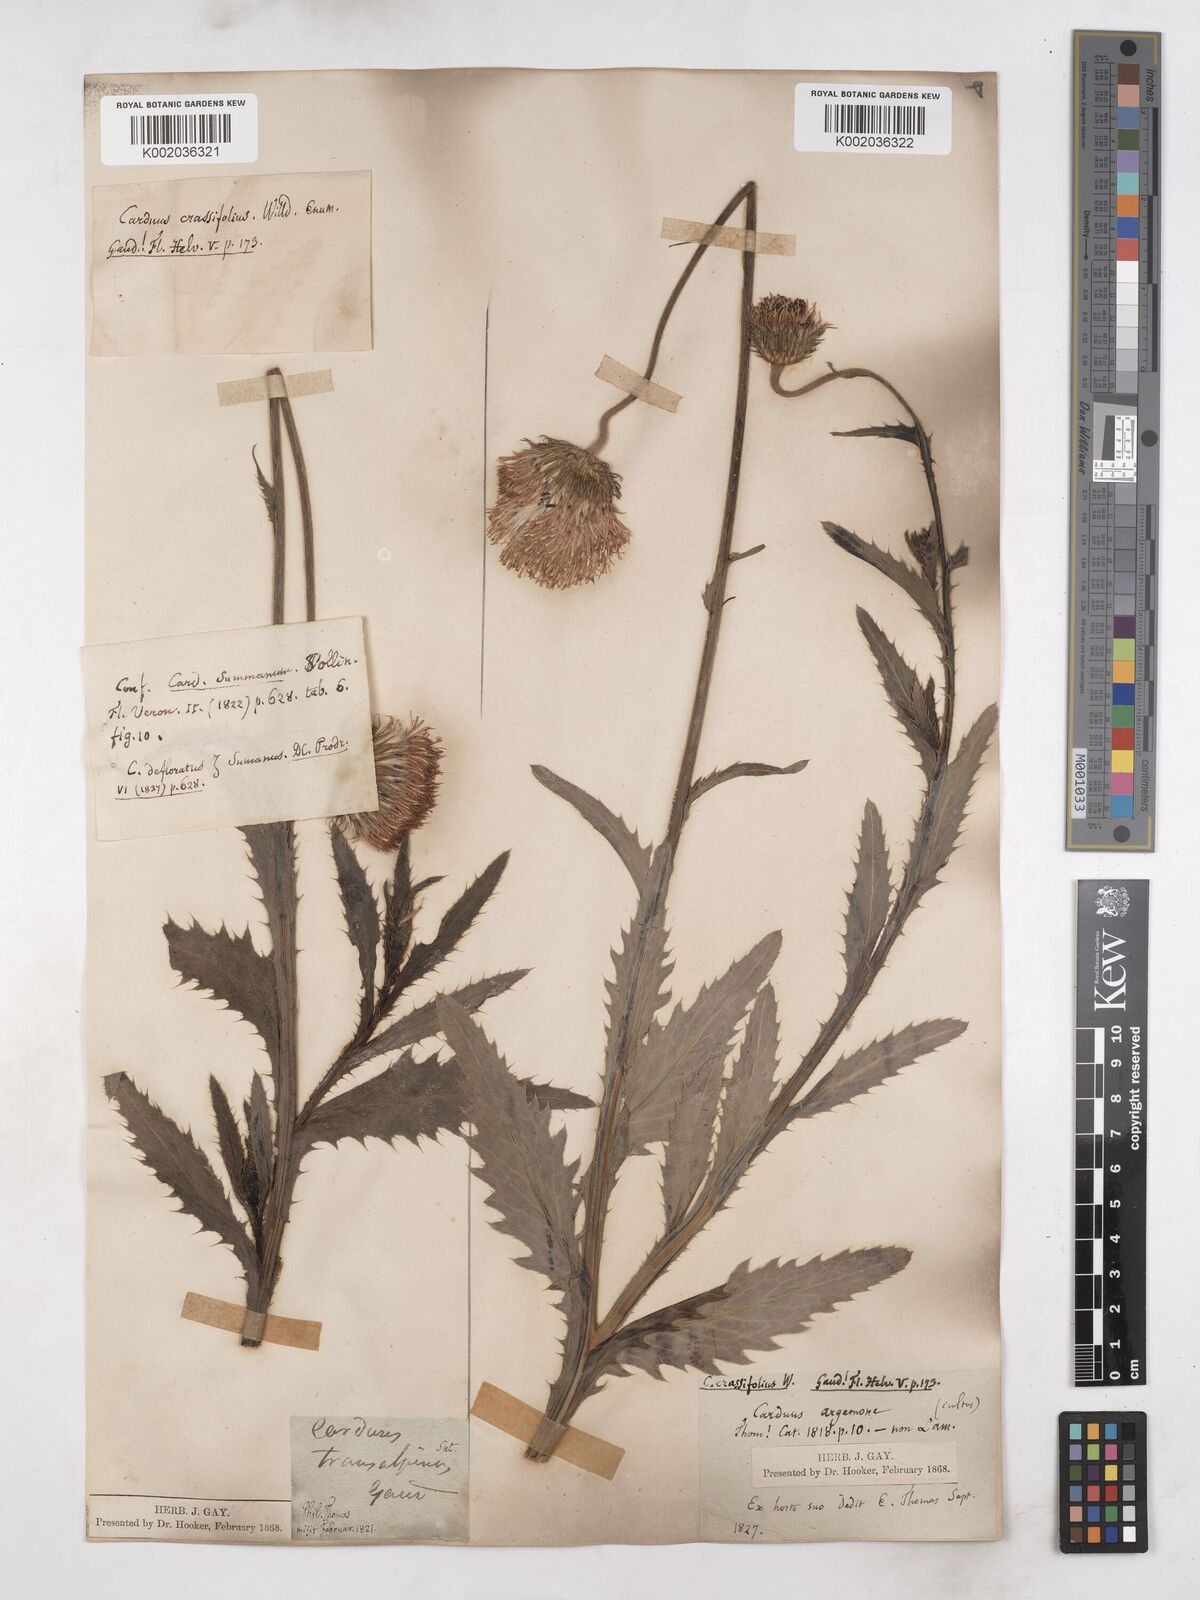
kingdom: Plantae
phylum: Tracheophyta
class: Magnoliopsida
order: Asterales
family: Asteraceae
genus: Carduus
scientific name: Carduus defloratus
